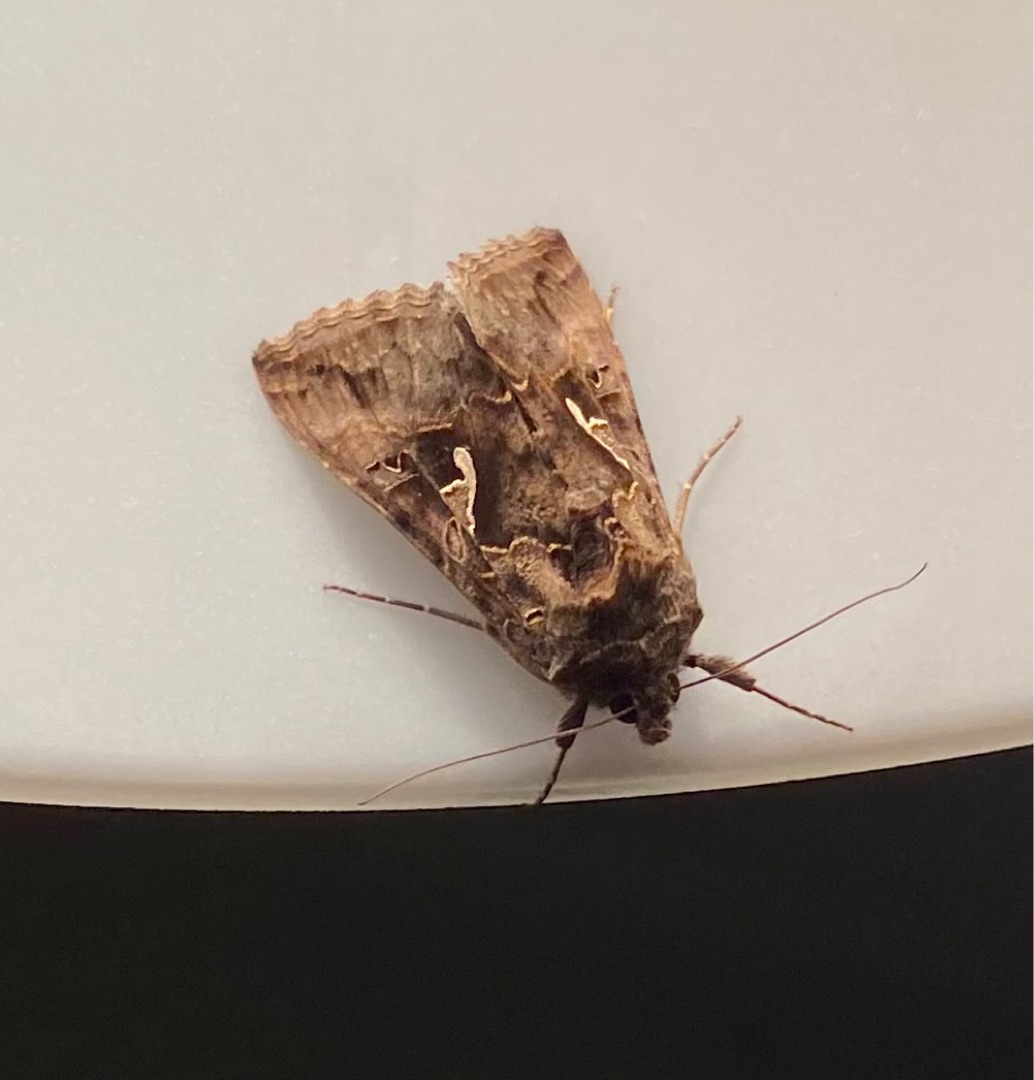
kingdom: Animalia
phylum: Arthropoda
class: Insecta
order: Lepidoptera
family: Noctuidae
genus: Autographa
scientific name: Autographa gamma
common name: Gammaugle
